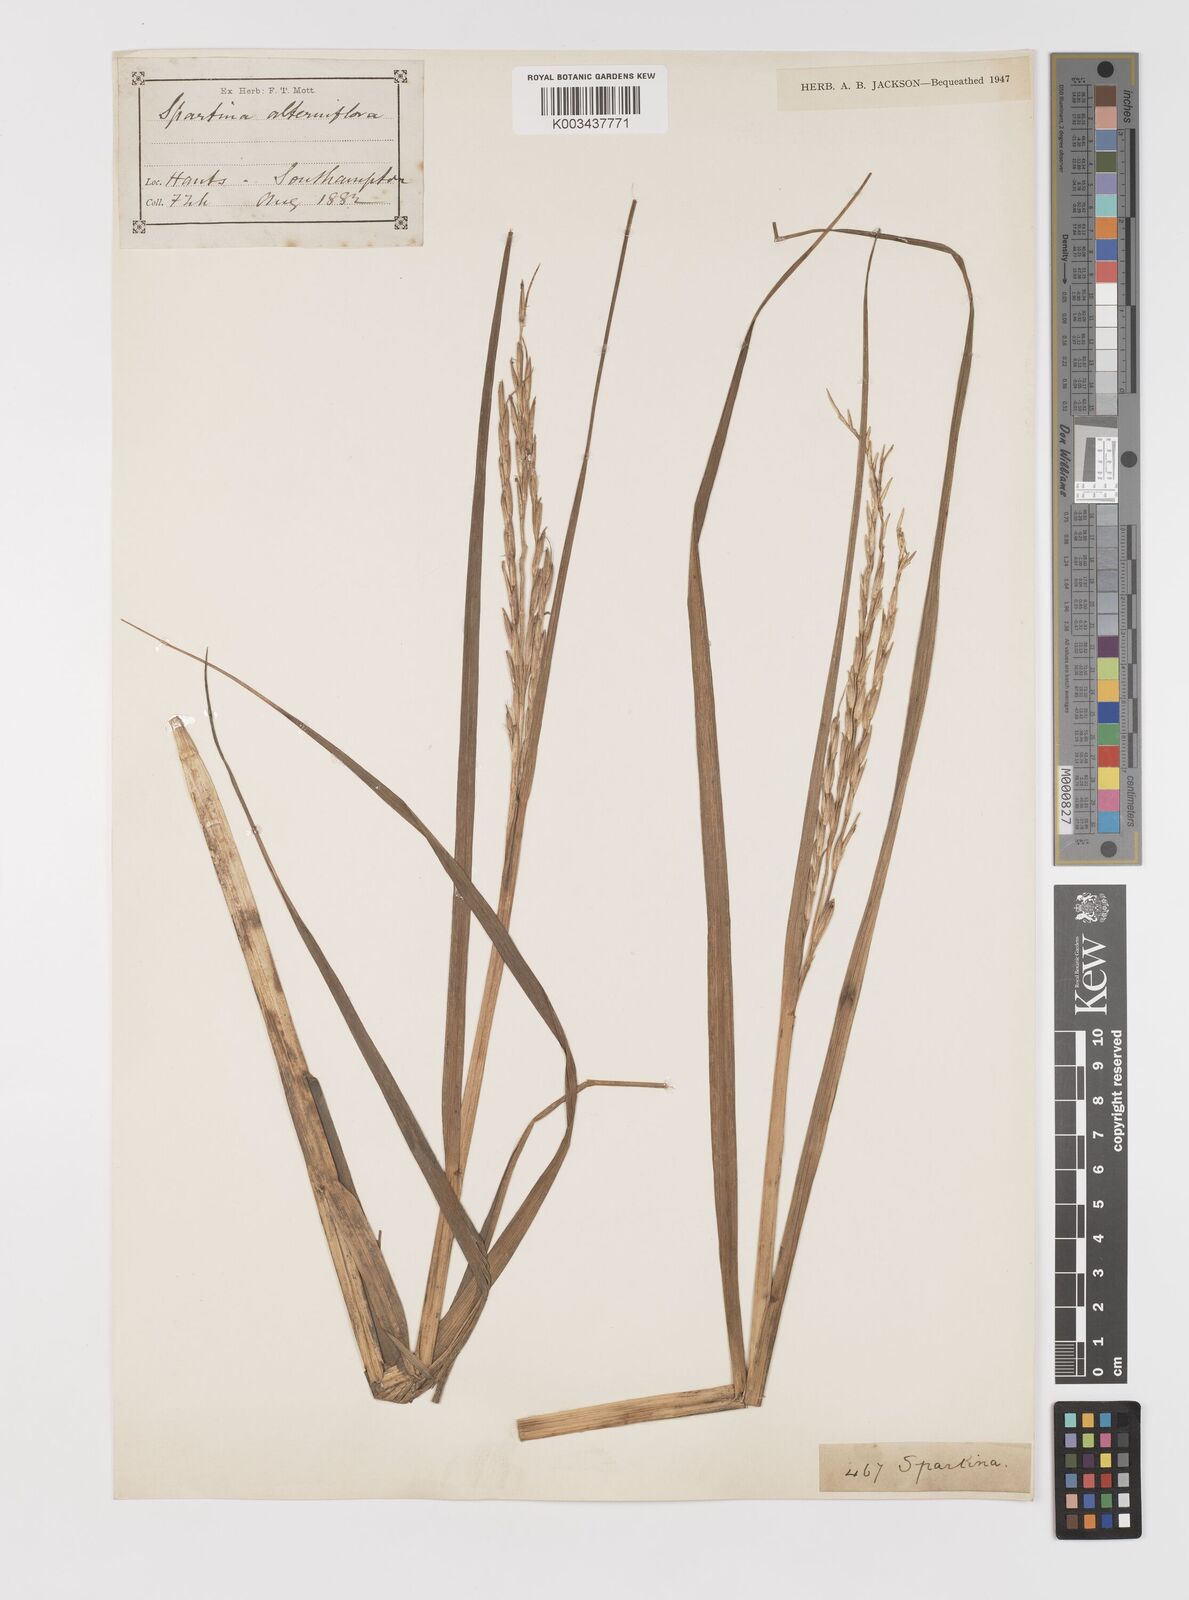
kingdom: Plantae
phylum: Tracheophyta
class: Liliopsida
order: Poales
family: Poaceae
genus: Sporobolus
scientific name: Sporobolus alterniflorus
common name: Atlantic cordgrass
